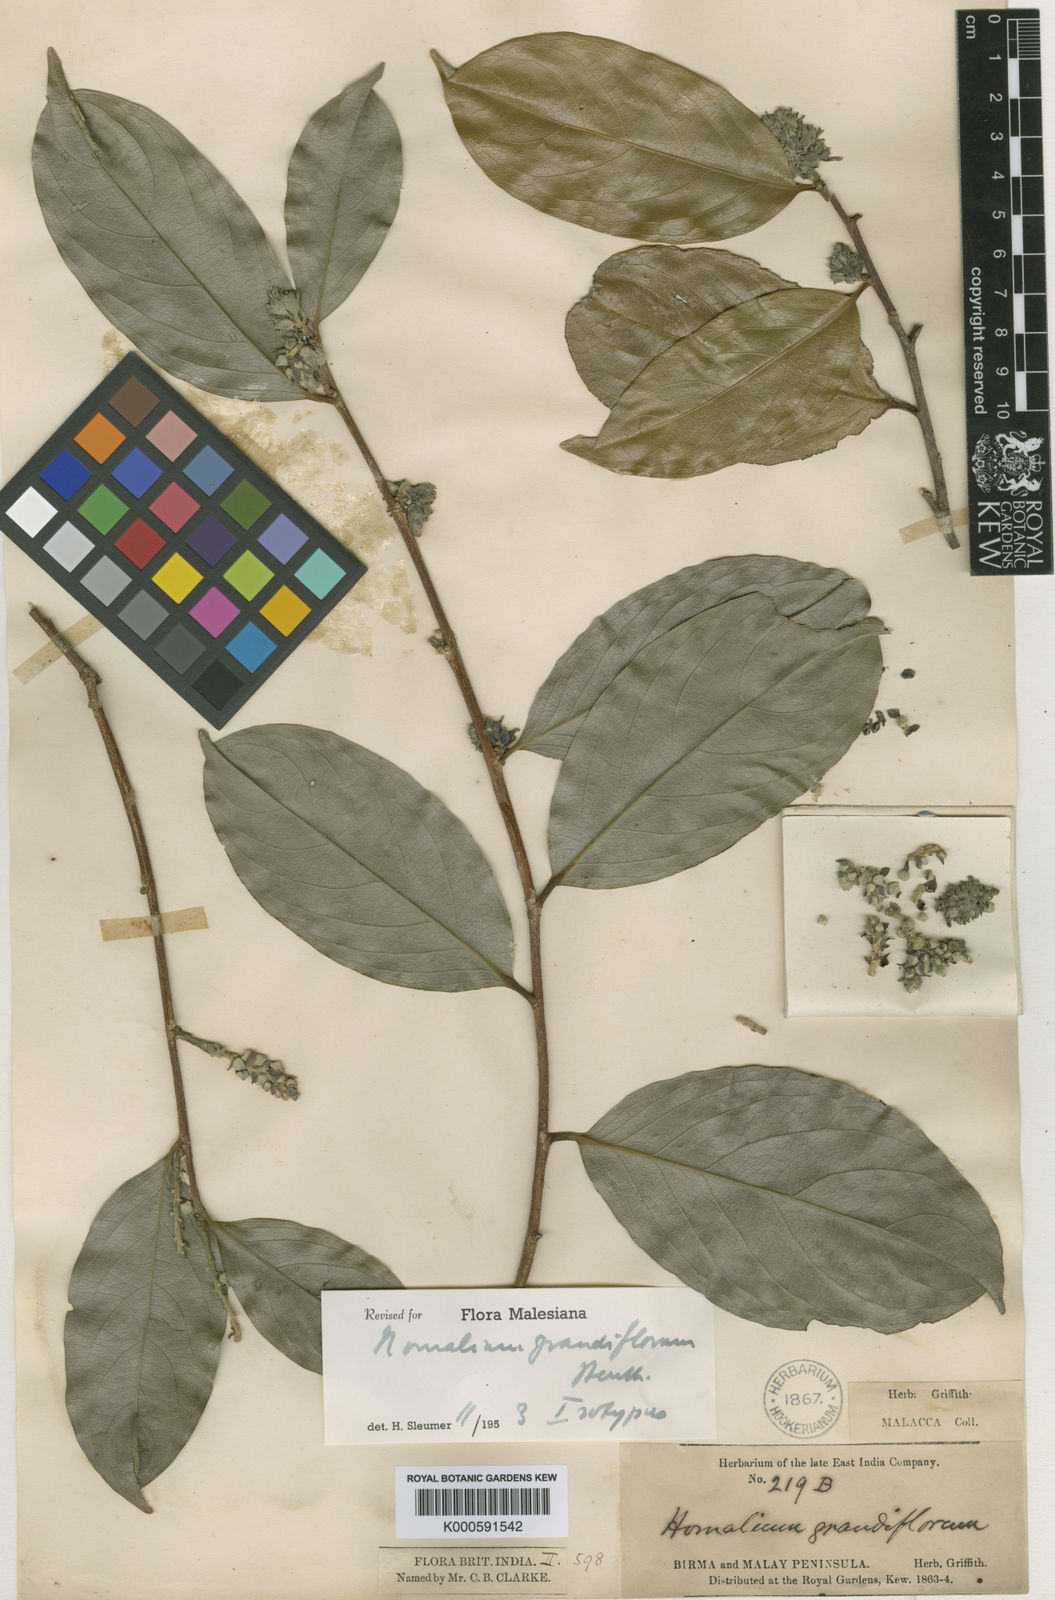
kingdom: Plantae
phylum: Tracheophyta
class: Magnoliopsida
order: Malpighiales
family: Salicaceae
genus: Homalium
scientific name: Homalium grandiflorum
